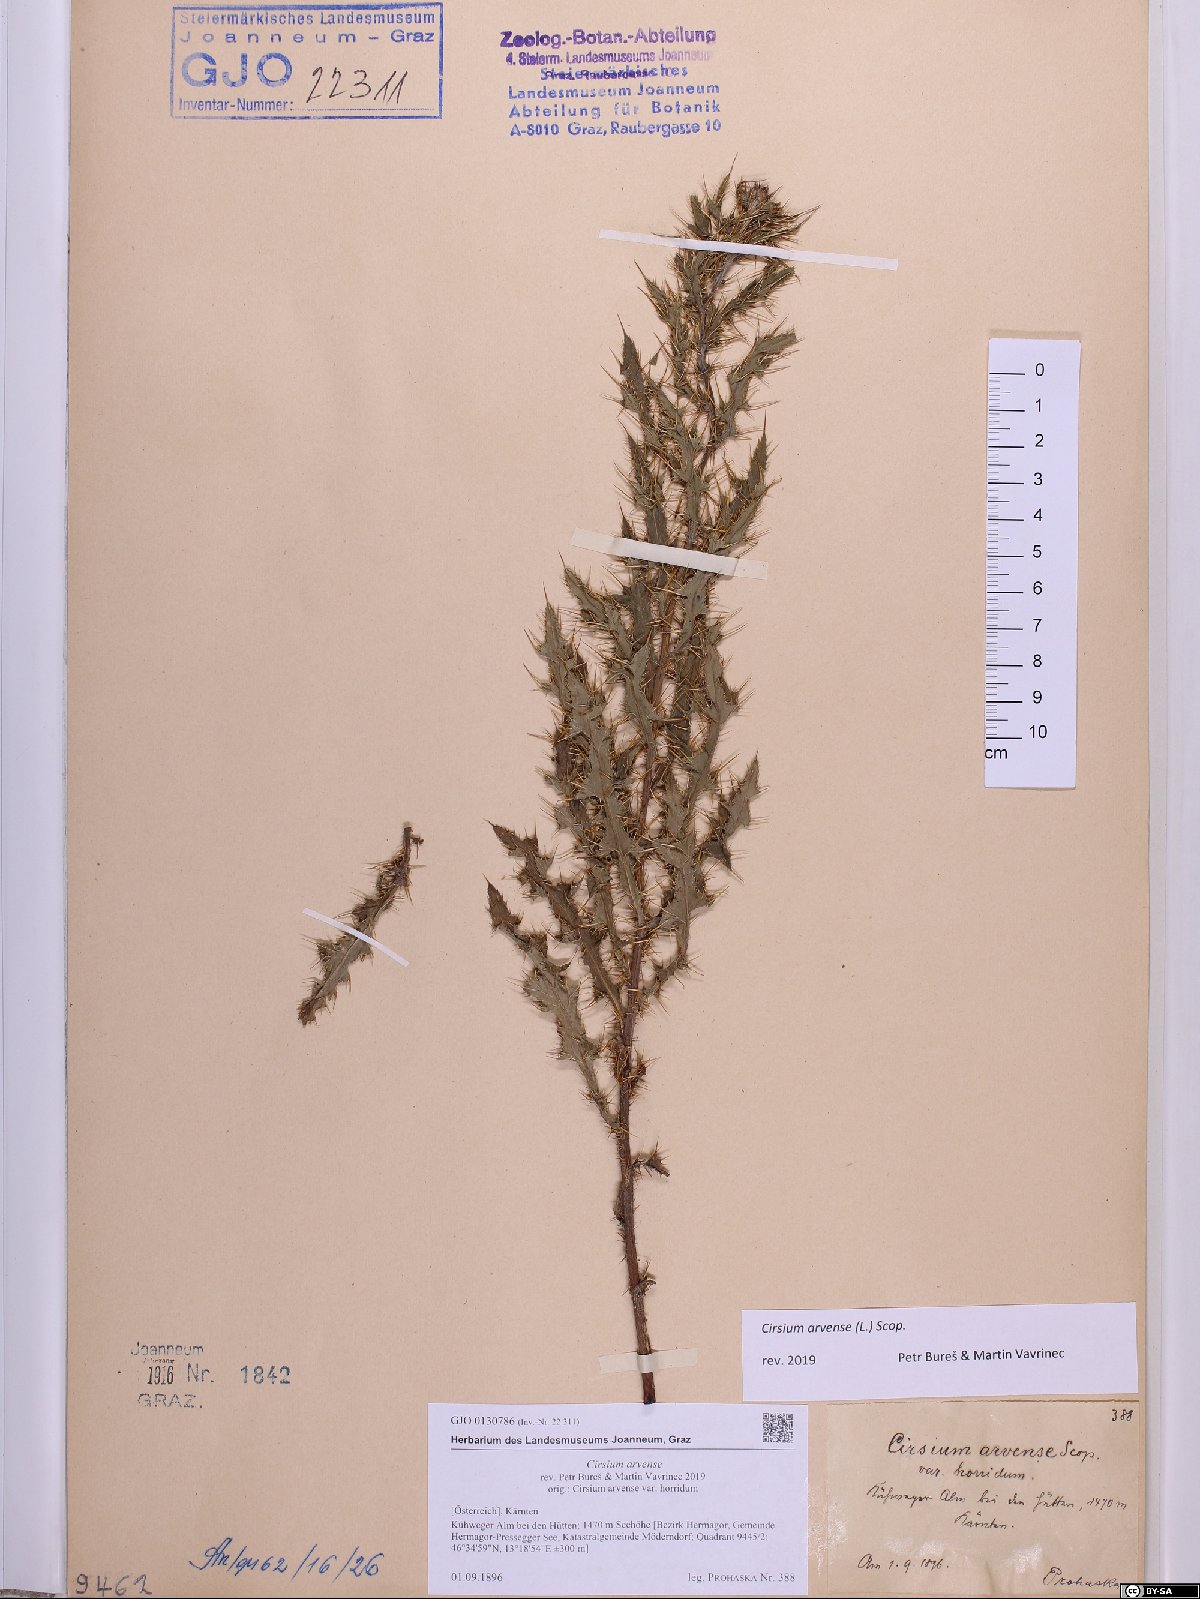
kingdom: Plantae
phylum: Tracheophyta
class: Magnoliopsida
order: Asterales
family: Asteraceae
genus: Cirsium
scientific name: Cirsium arvense
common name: Creeping thistle
